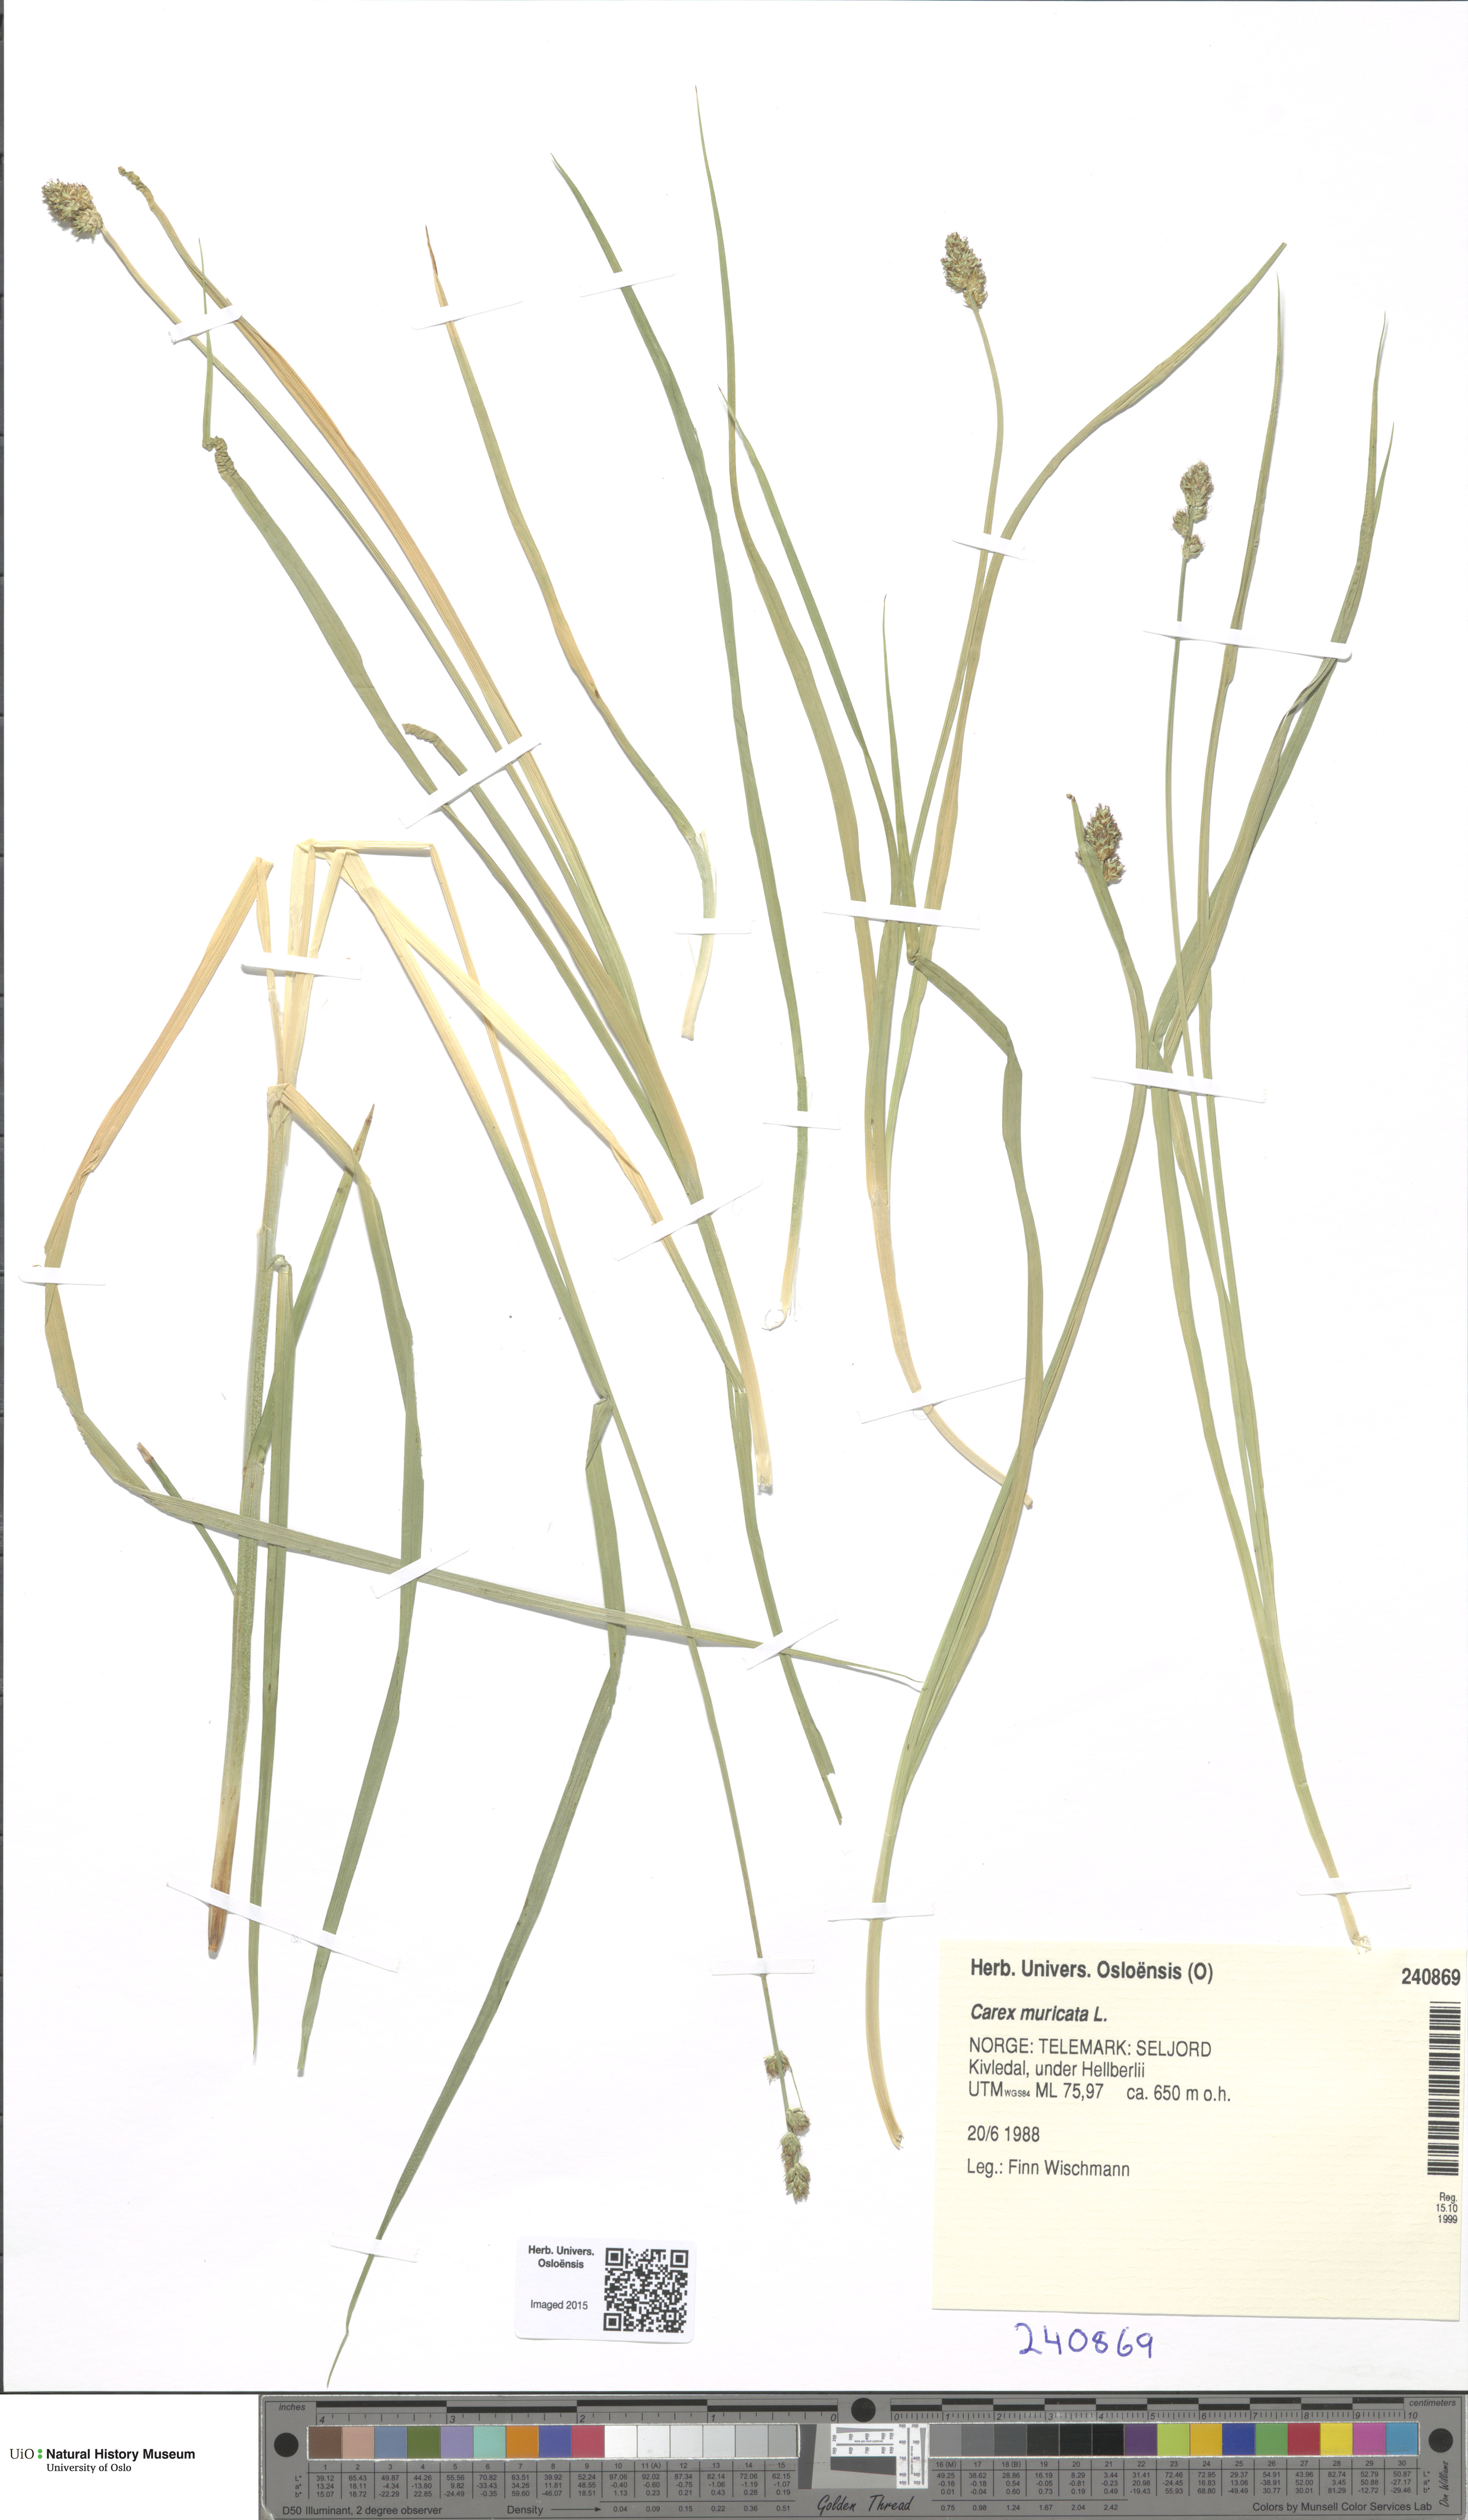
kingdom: Plantae
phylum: Tracheophyta
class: Liliopsida
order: Poales
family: Cyperaceae
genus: Carex
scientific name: Carex muricata
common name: Rough sedge
